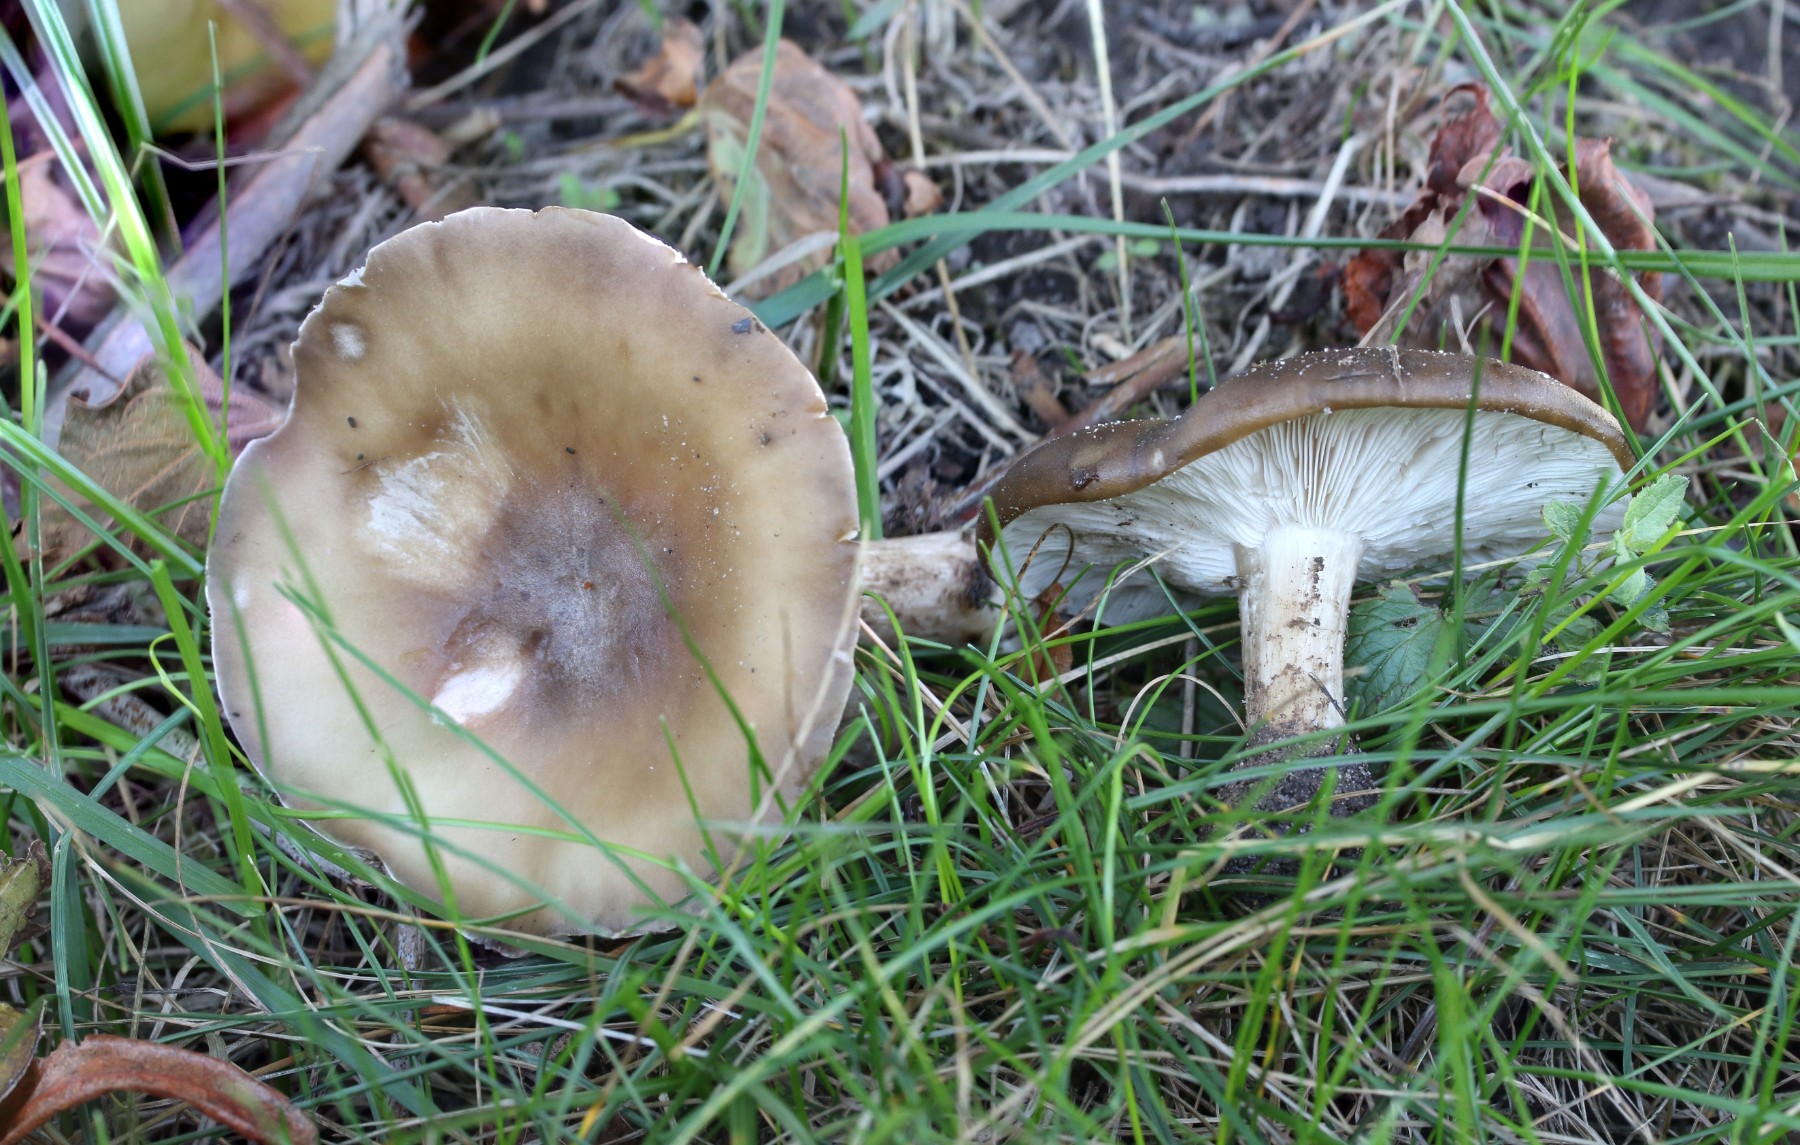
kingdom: Fungi
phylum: Basidiomycota
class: Agaricomycetes
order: Agaricales
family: Tricholomataceae
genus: Melanoleuca
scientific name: Melanoleuca grammopodia
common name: stribestokket munkehat
